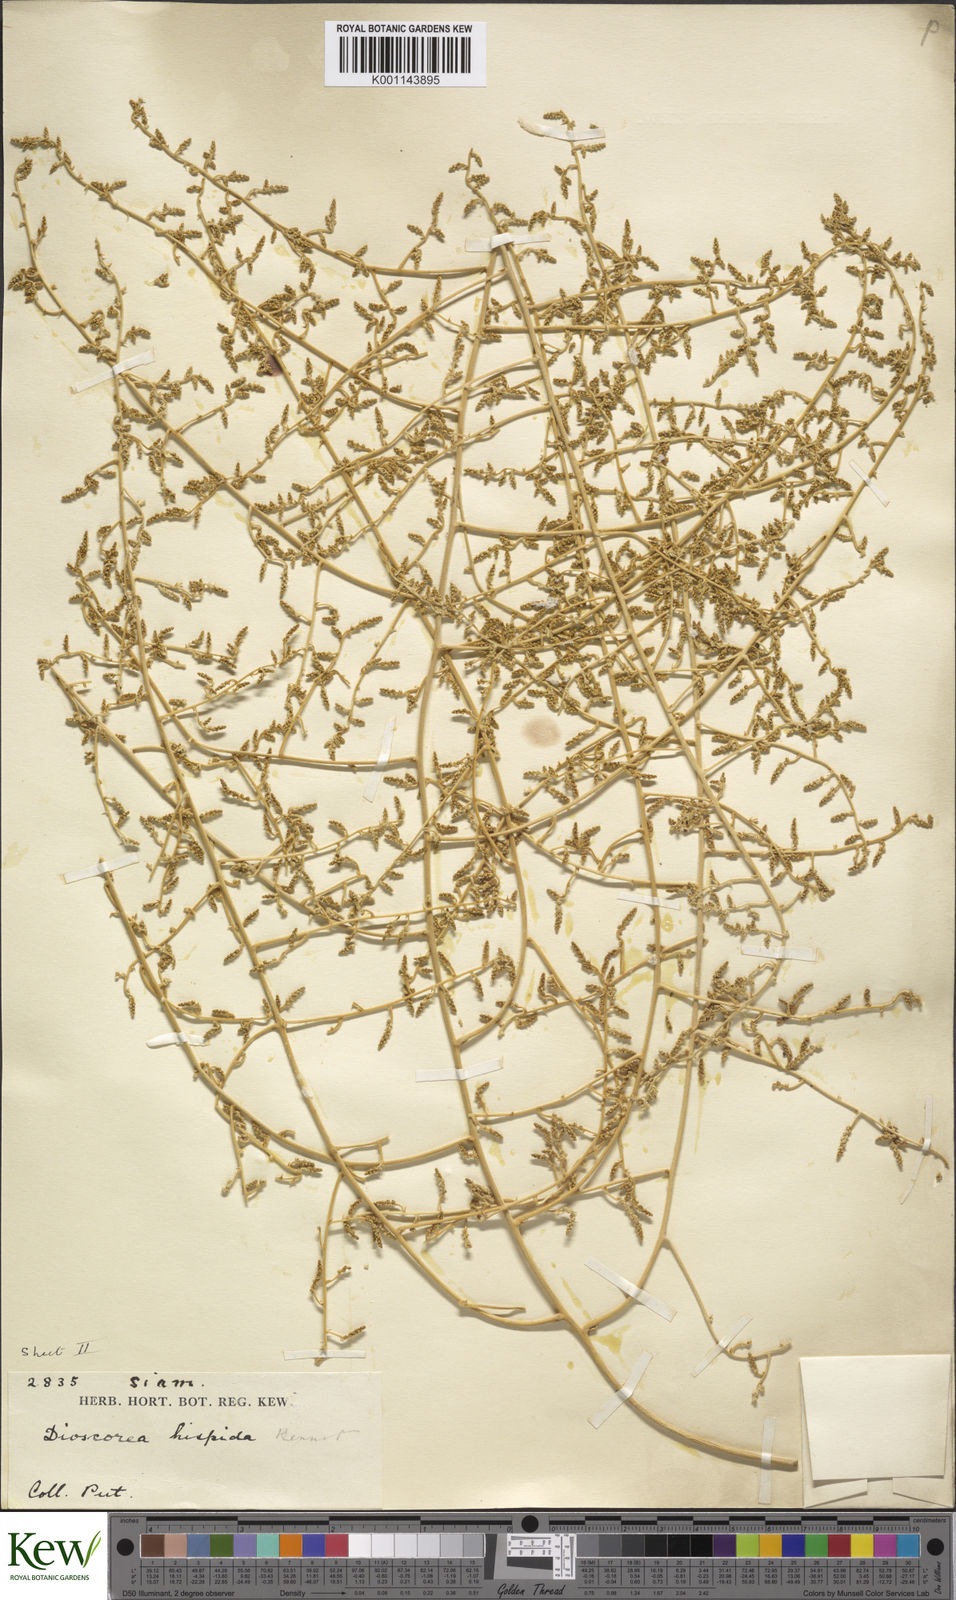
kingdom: Plantae
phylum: Tracheophyta
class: Liliopsida
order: Dioscoreales
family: Dioscoreaceae
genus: Dioscorea
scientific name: Dioscorea hispida
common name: Asiatic bitter yam
